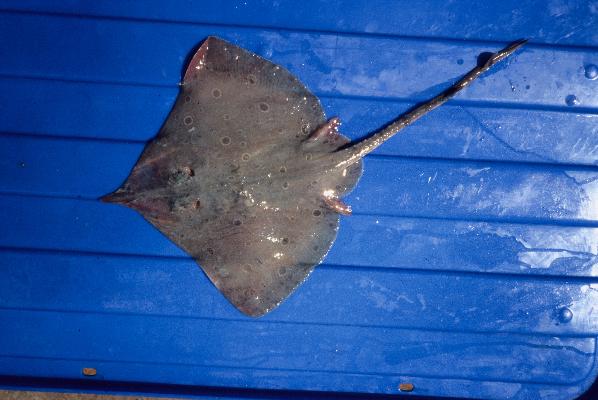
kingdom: Animalia
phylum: Chordata
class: Elasmobranchii
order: Rajiformes
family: Rajidae
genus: Okamejei
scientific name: Okamejei heemstrai
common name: East african skate
